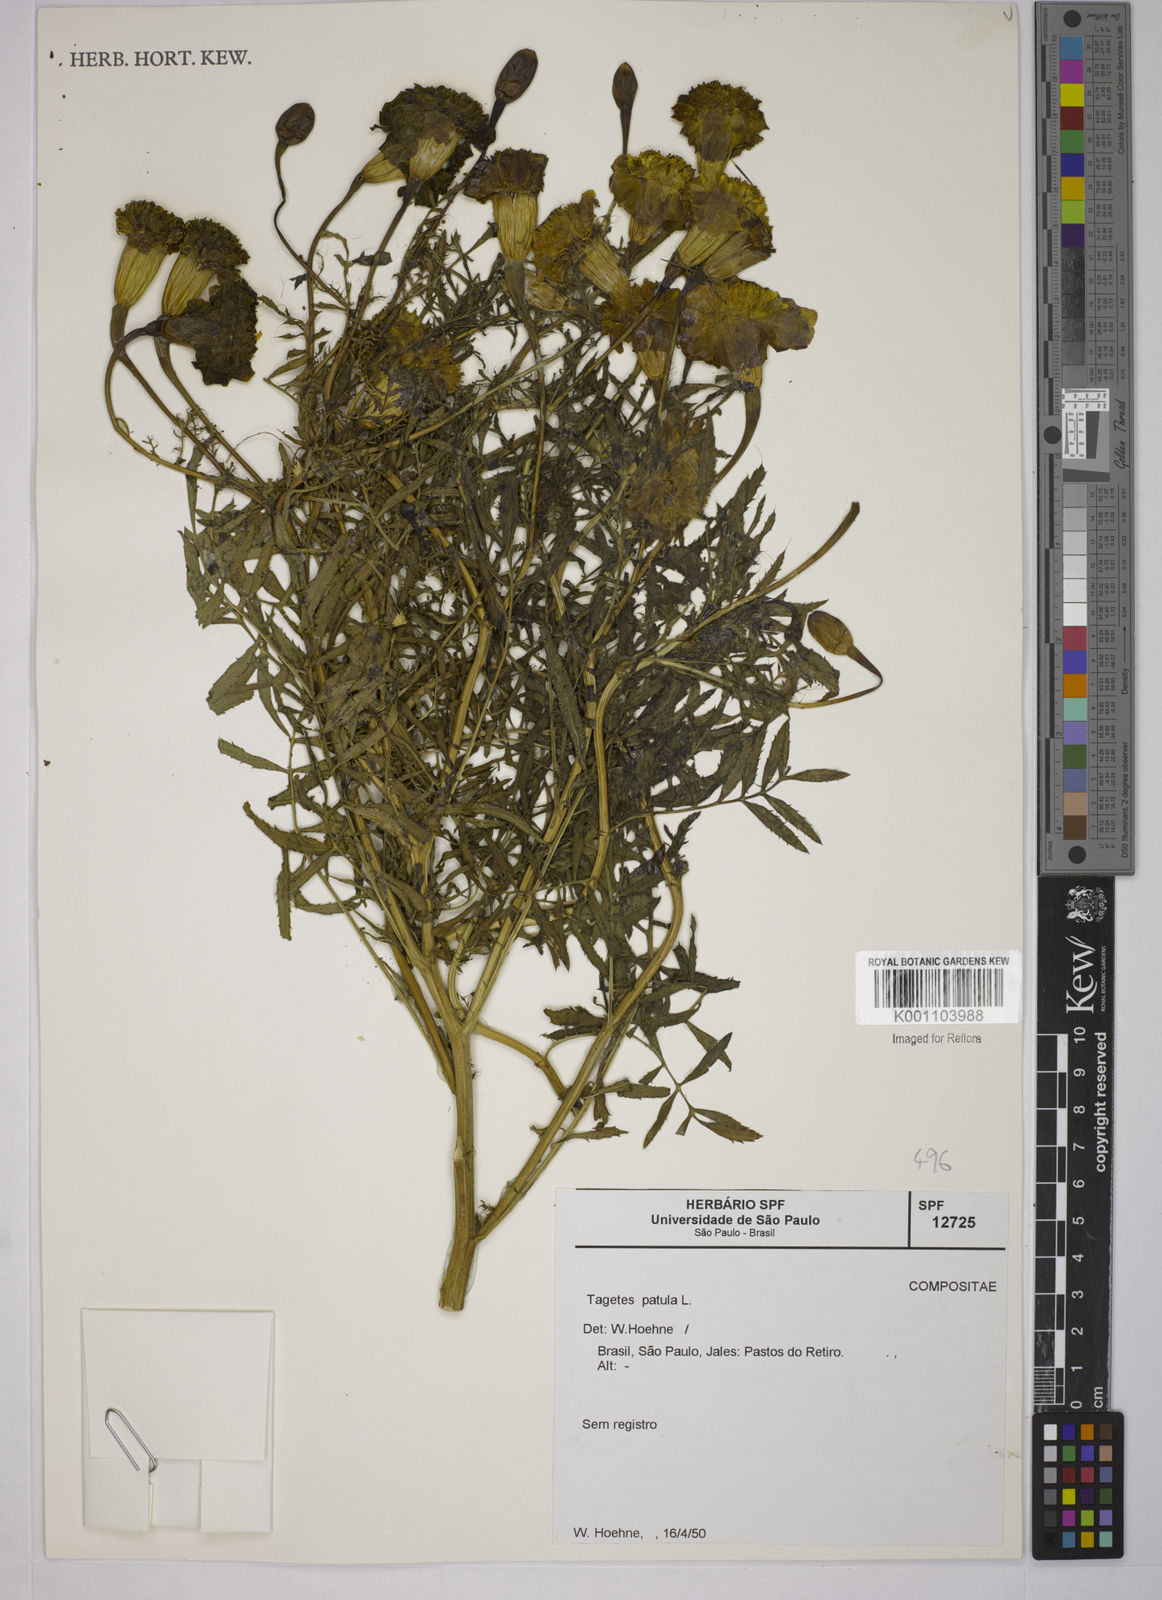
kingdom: Plantae
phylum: Tracheophyta
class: Magnoliopsida
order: Asterales
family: Asteraceae
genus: Tagetes
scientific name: Tagetes erecta
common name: African marigold
